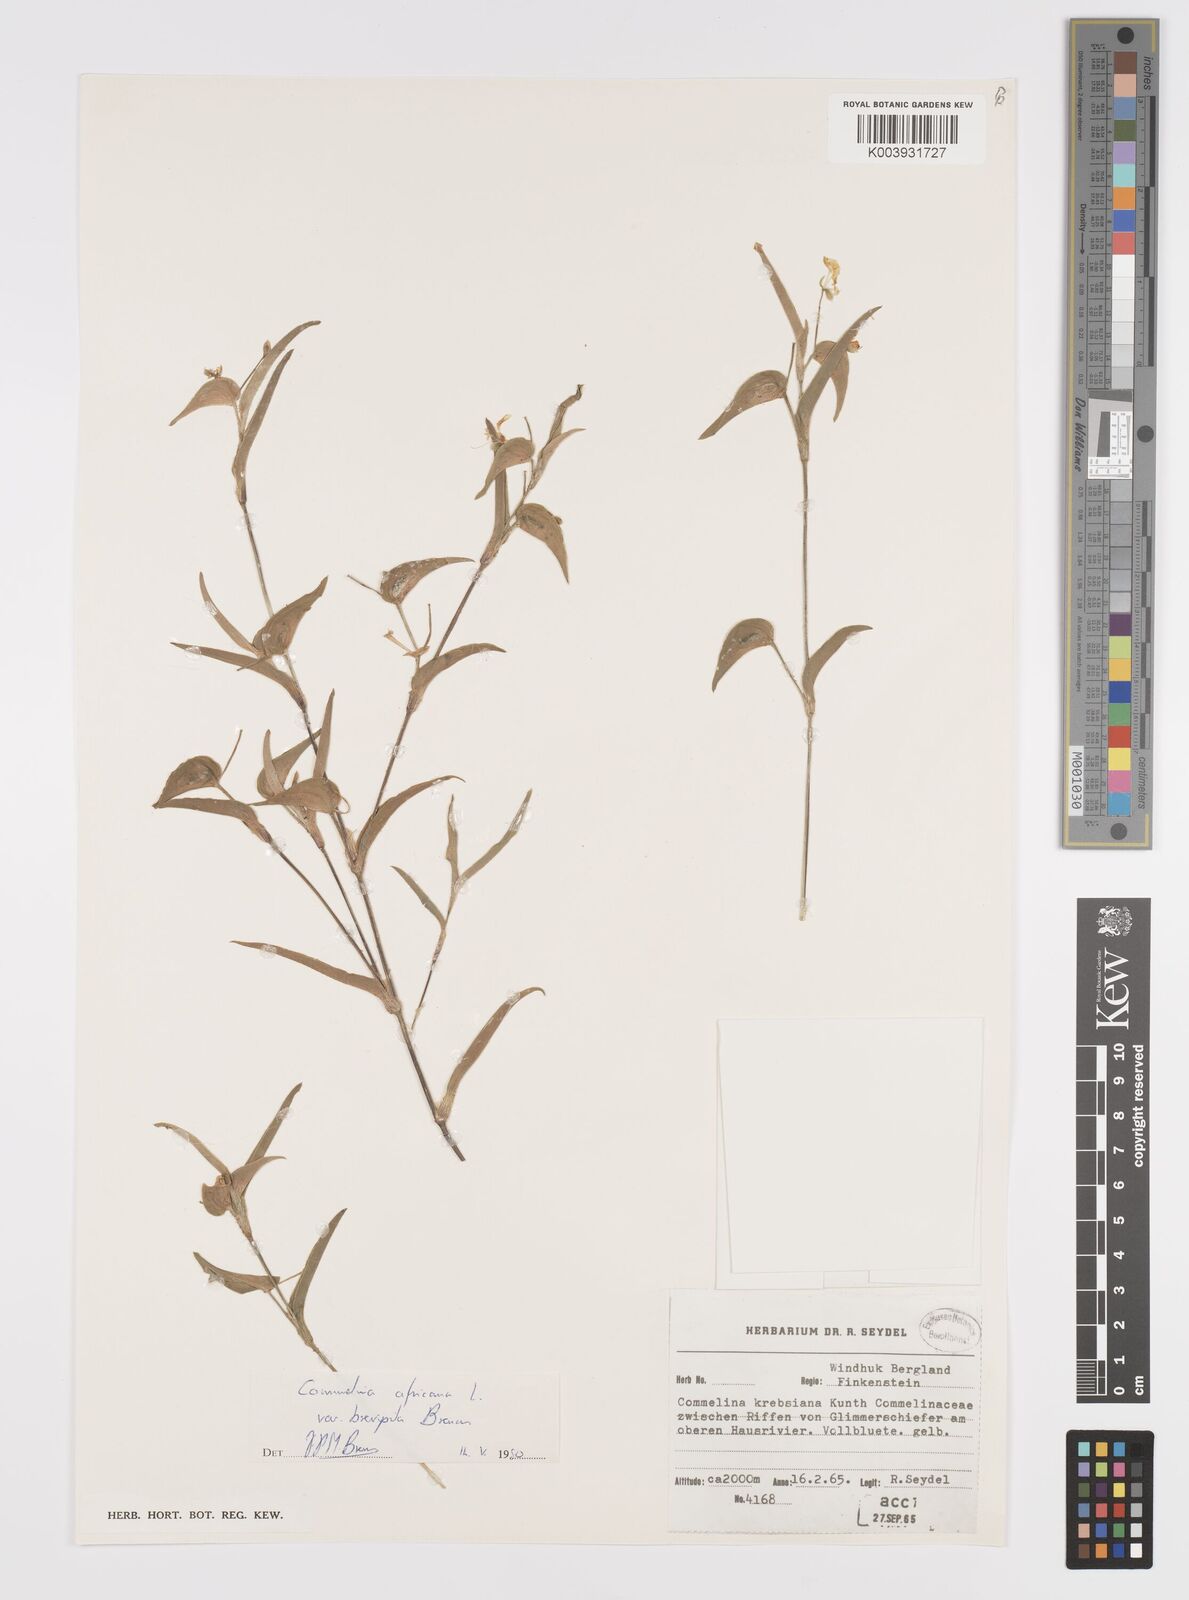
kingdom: Plantae
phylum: Tracheophyta
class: Liliopsida
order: Commelinales
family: Commelinaceae
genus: Commelina
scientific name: Commelina africana
